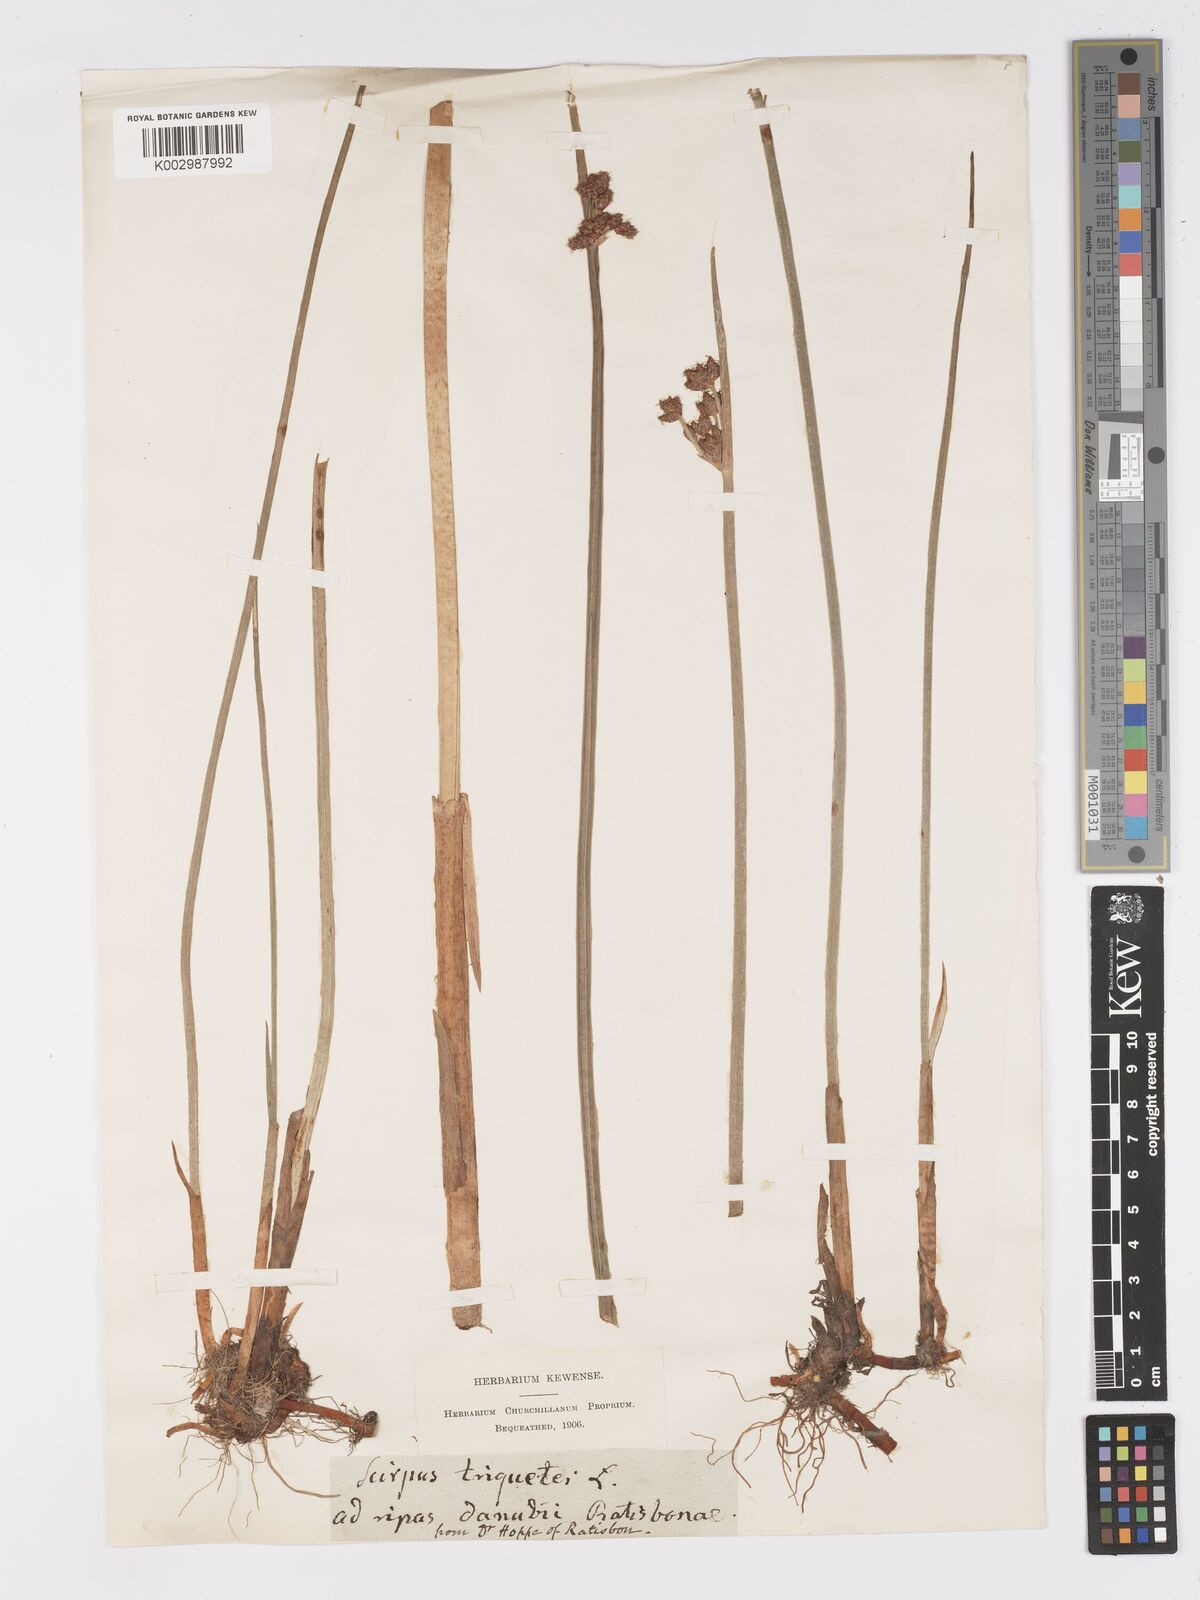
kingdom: Plantae
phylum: Tracheophyta
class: Liliopsida
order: Poales
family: Cyperaceae
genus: Schoenoplectus
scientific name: Schoenoplectus triqueter
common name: Triangular club-rush
